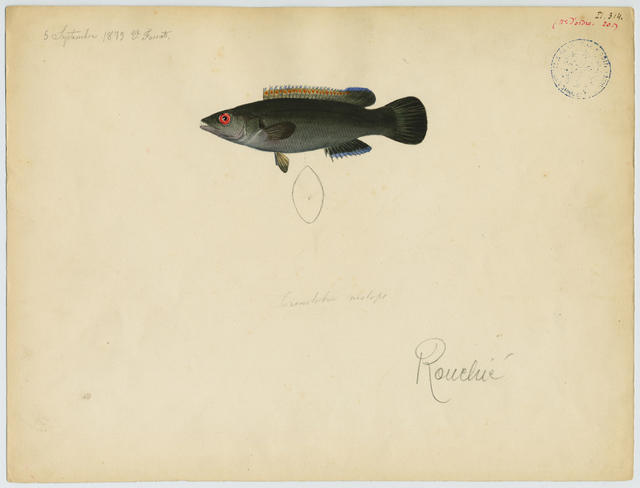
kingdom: Animalia
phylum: Chordata
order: Perciformes
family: Labridae
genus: Acantholabrus
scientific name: Acantholabrus palloni
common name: Scale-rayed wrasse
